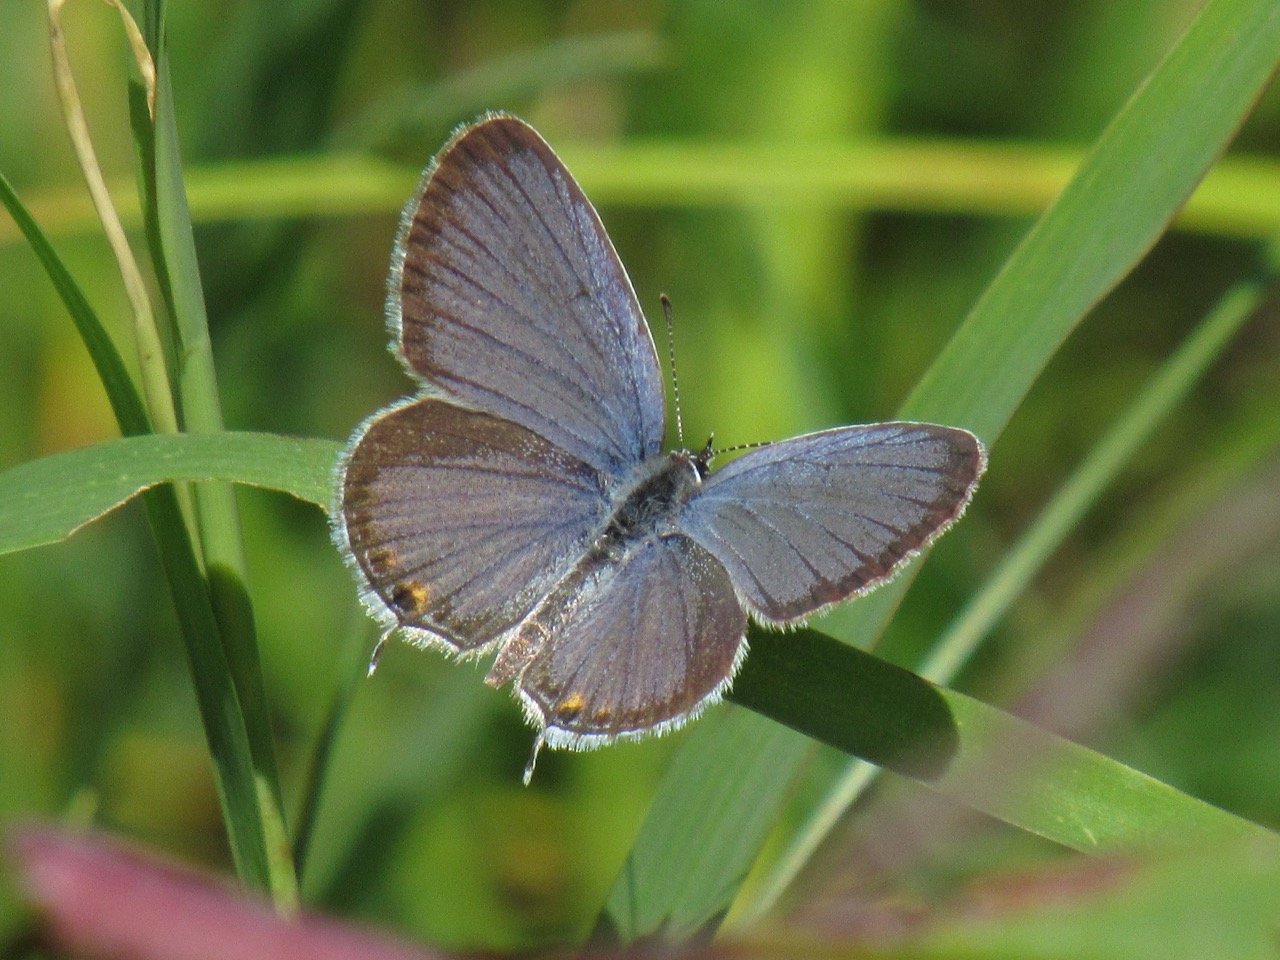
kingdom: Animalia
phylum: Arthropoda
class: Insecta
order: Lepidoptera
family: Lycaenidae
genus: Elkalyce
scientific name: Elkalyce comyntas
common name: Eastern Tailed-Blue
